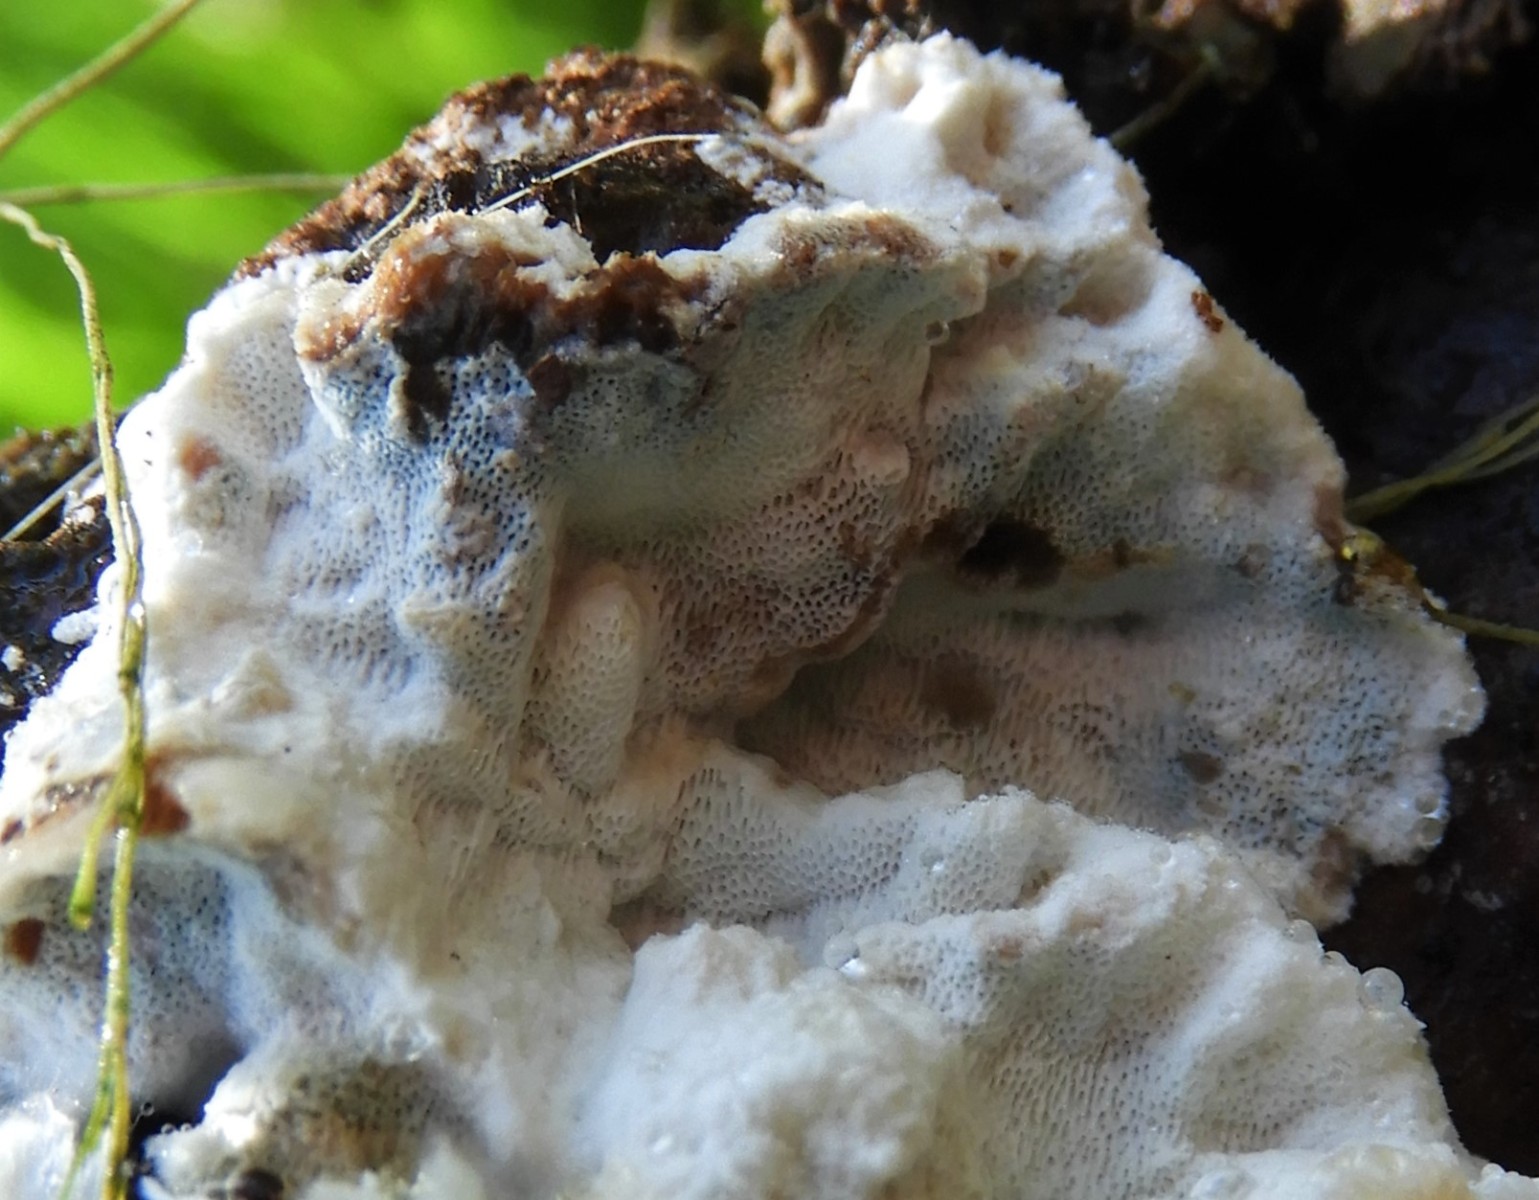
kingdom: Fungi
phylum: Basidiomycota
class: Agaricomycetes
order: Polyporales
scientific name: Polyporales
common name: poresvampordenen
